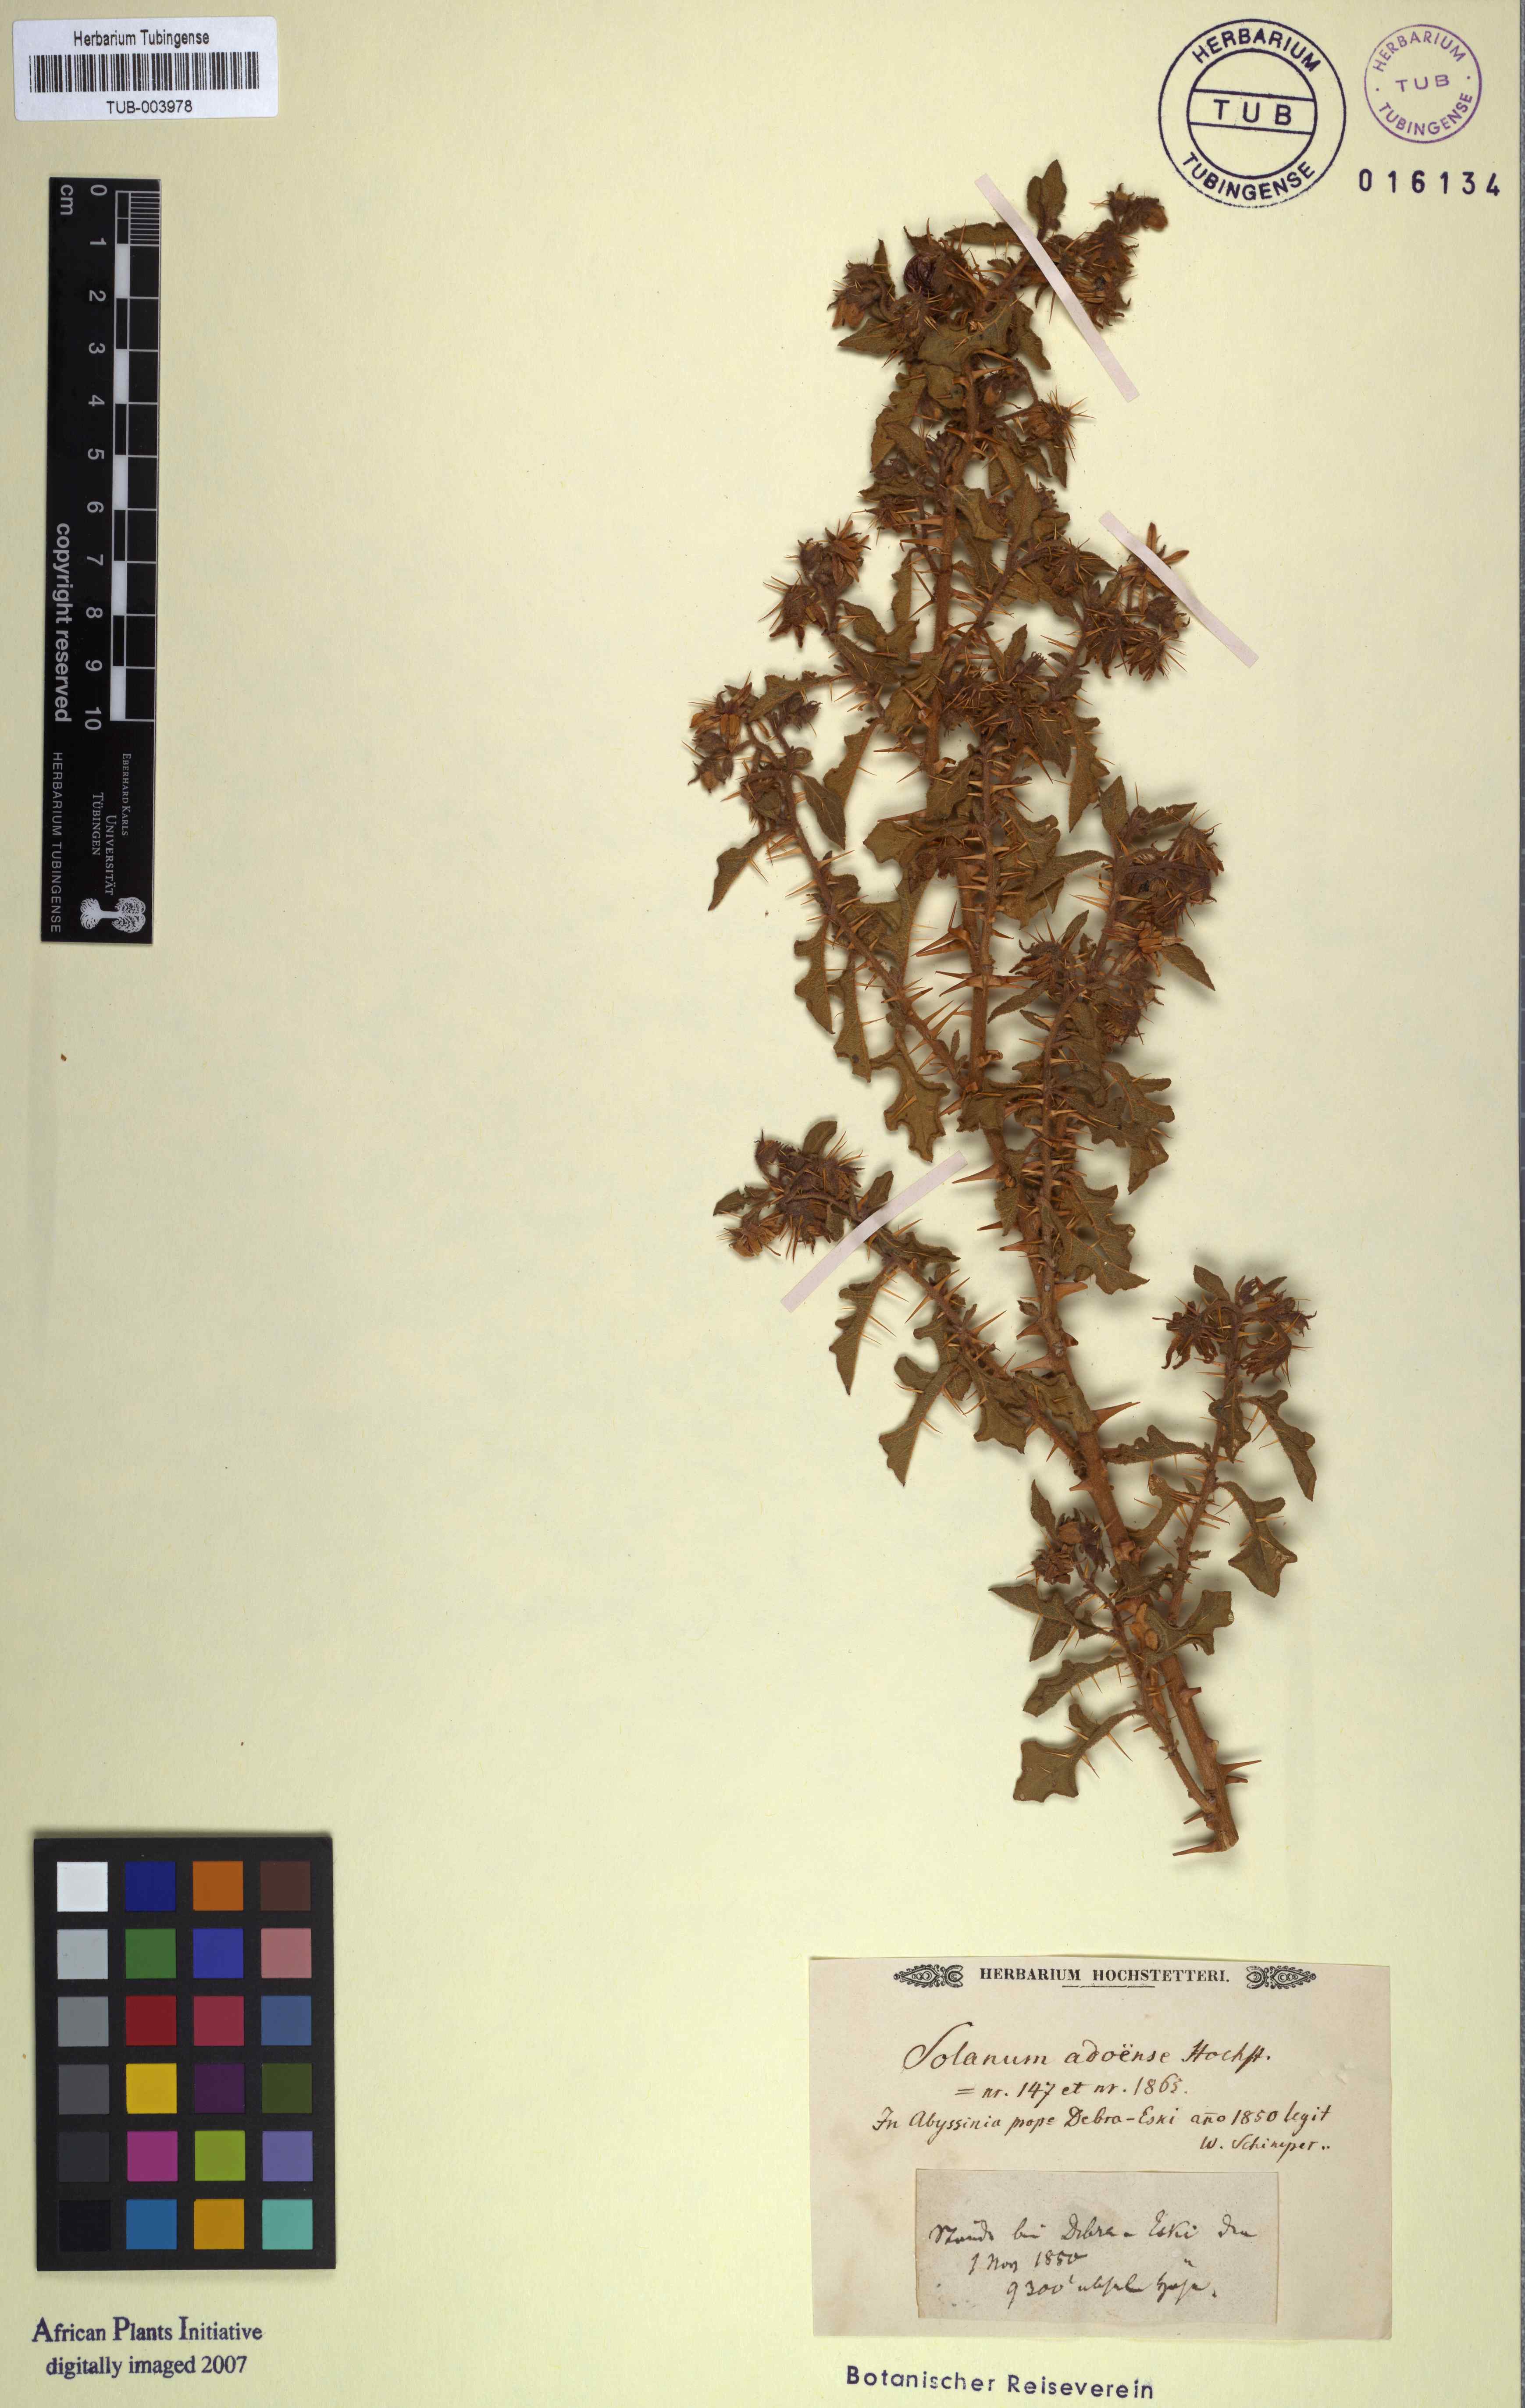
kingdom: Plantae
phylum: Tracheophyta
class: Magnoliopsida
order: Solanales
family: Solanaceae
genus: Solanum
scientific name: Solanum adoense
